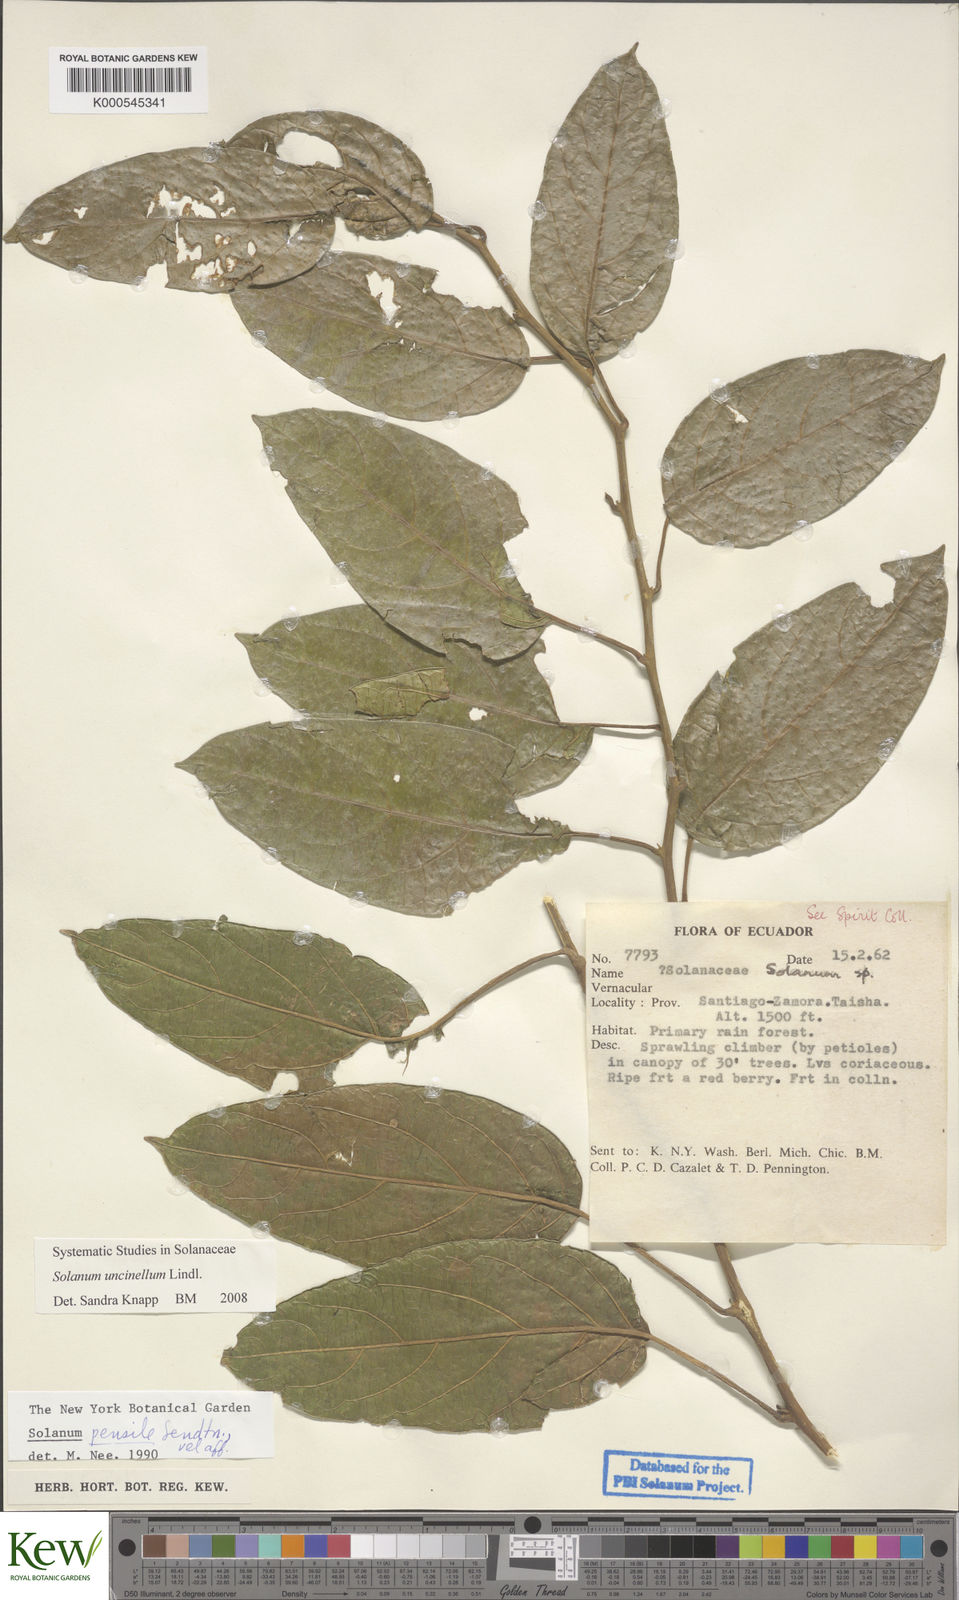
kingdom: Plantae
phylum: Tracheophyta
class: Magnoliopsida
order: Solanales
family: Solanaceae
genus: Solanum
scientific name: Solanum uncinellum
